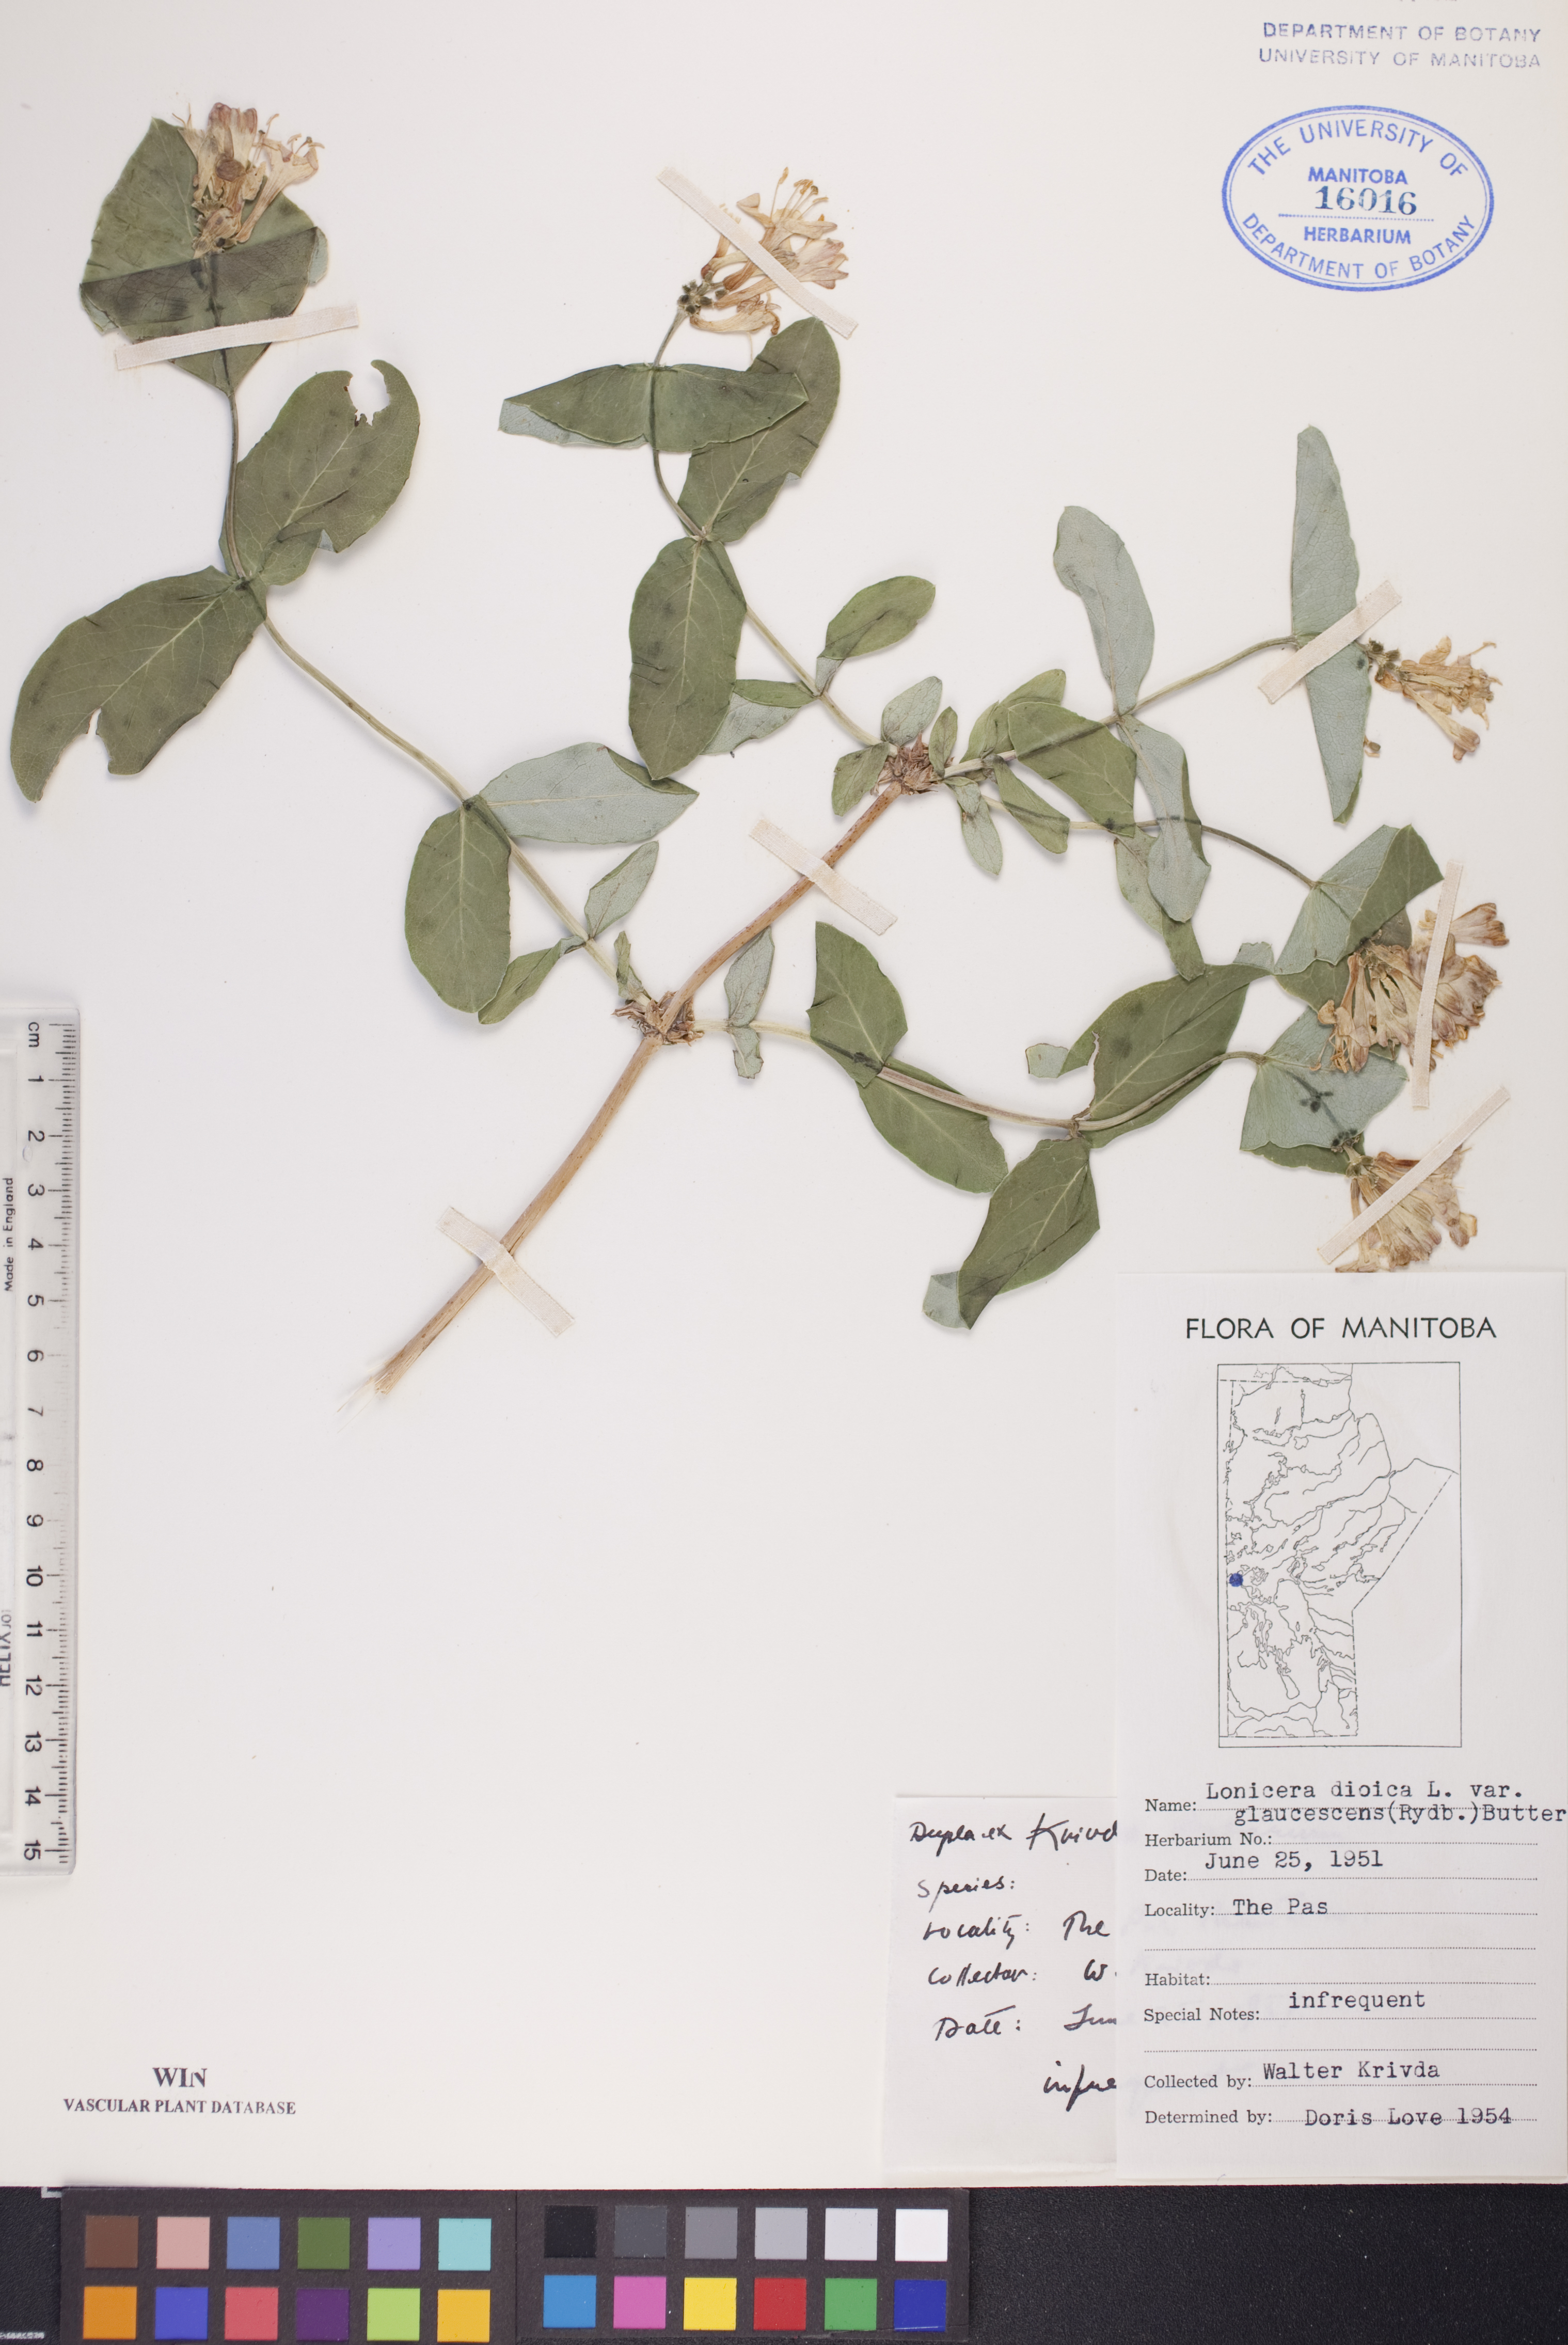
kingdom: Plantae
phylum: Tracheophyta
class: Magnoliopsida
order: Dipsacales
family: Caprifoliaceae
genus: Lonicera
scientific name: Lonicera dioica
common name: Limber honeysuckle
